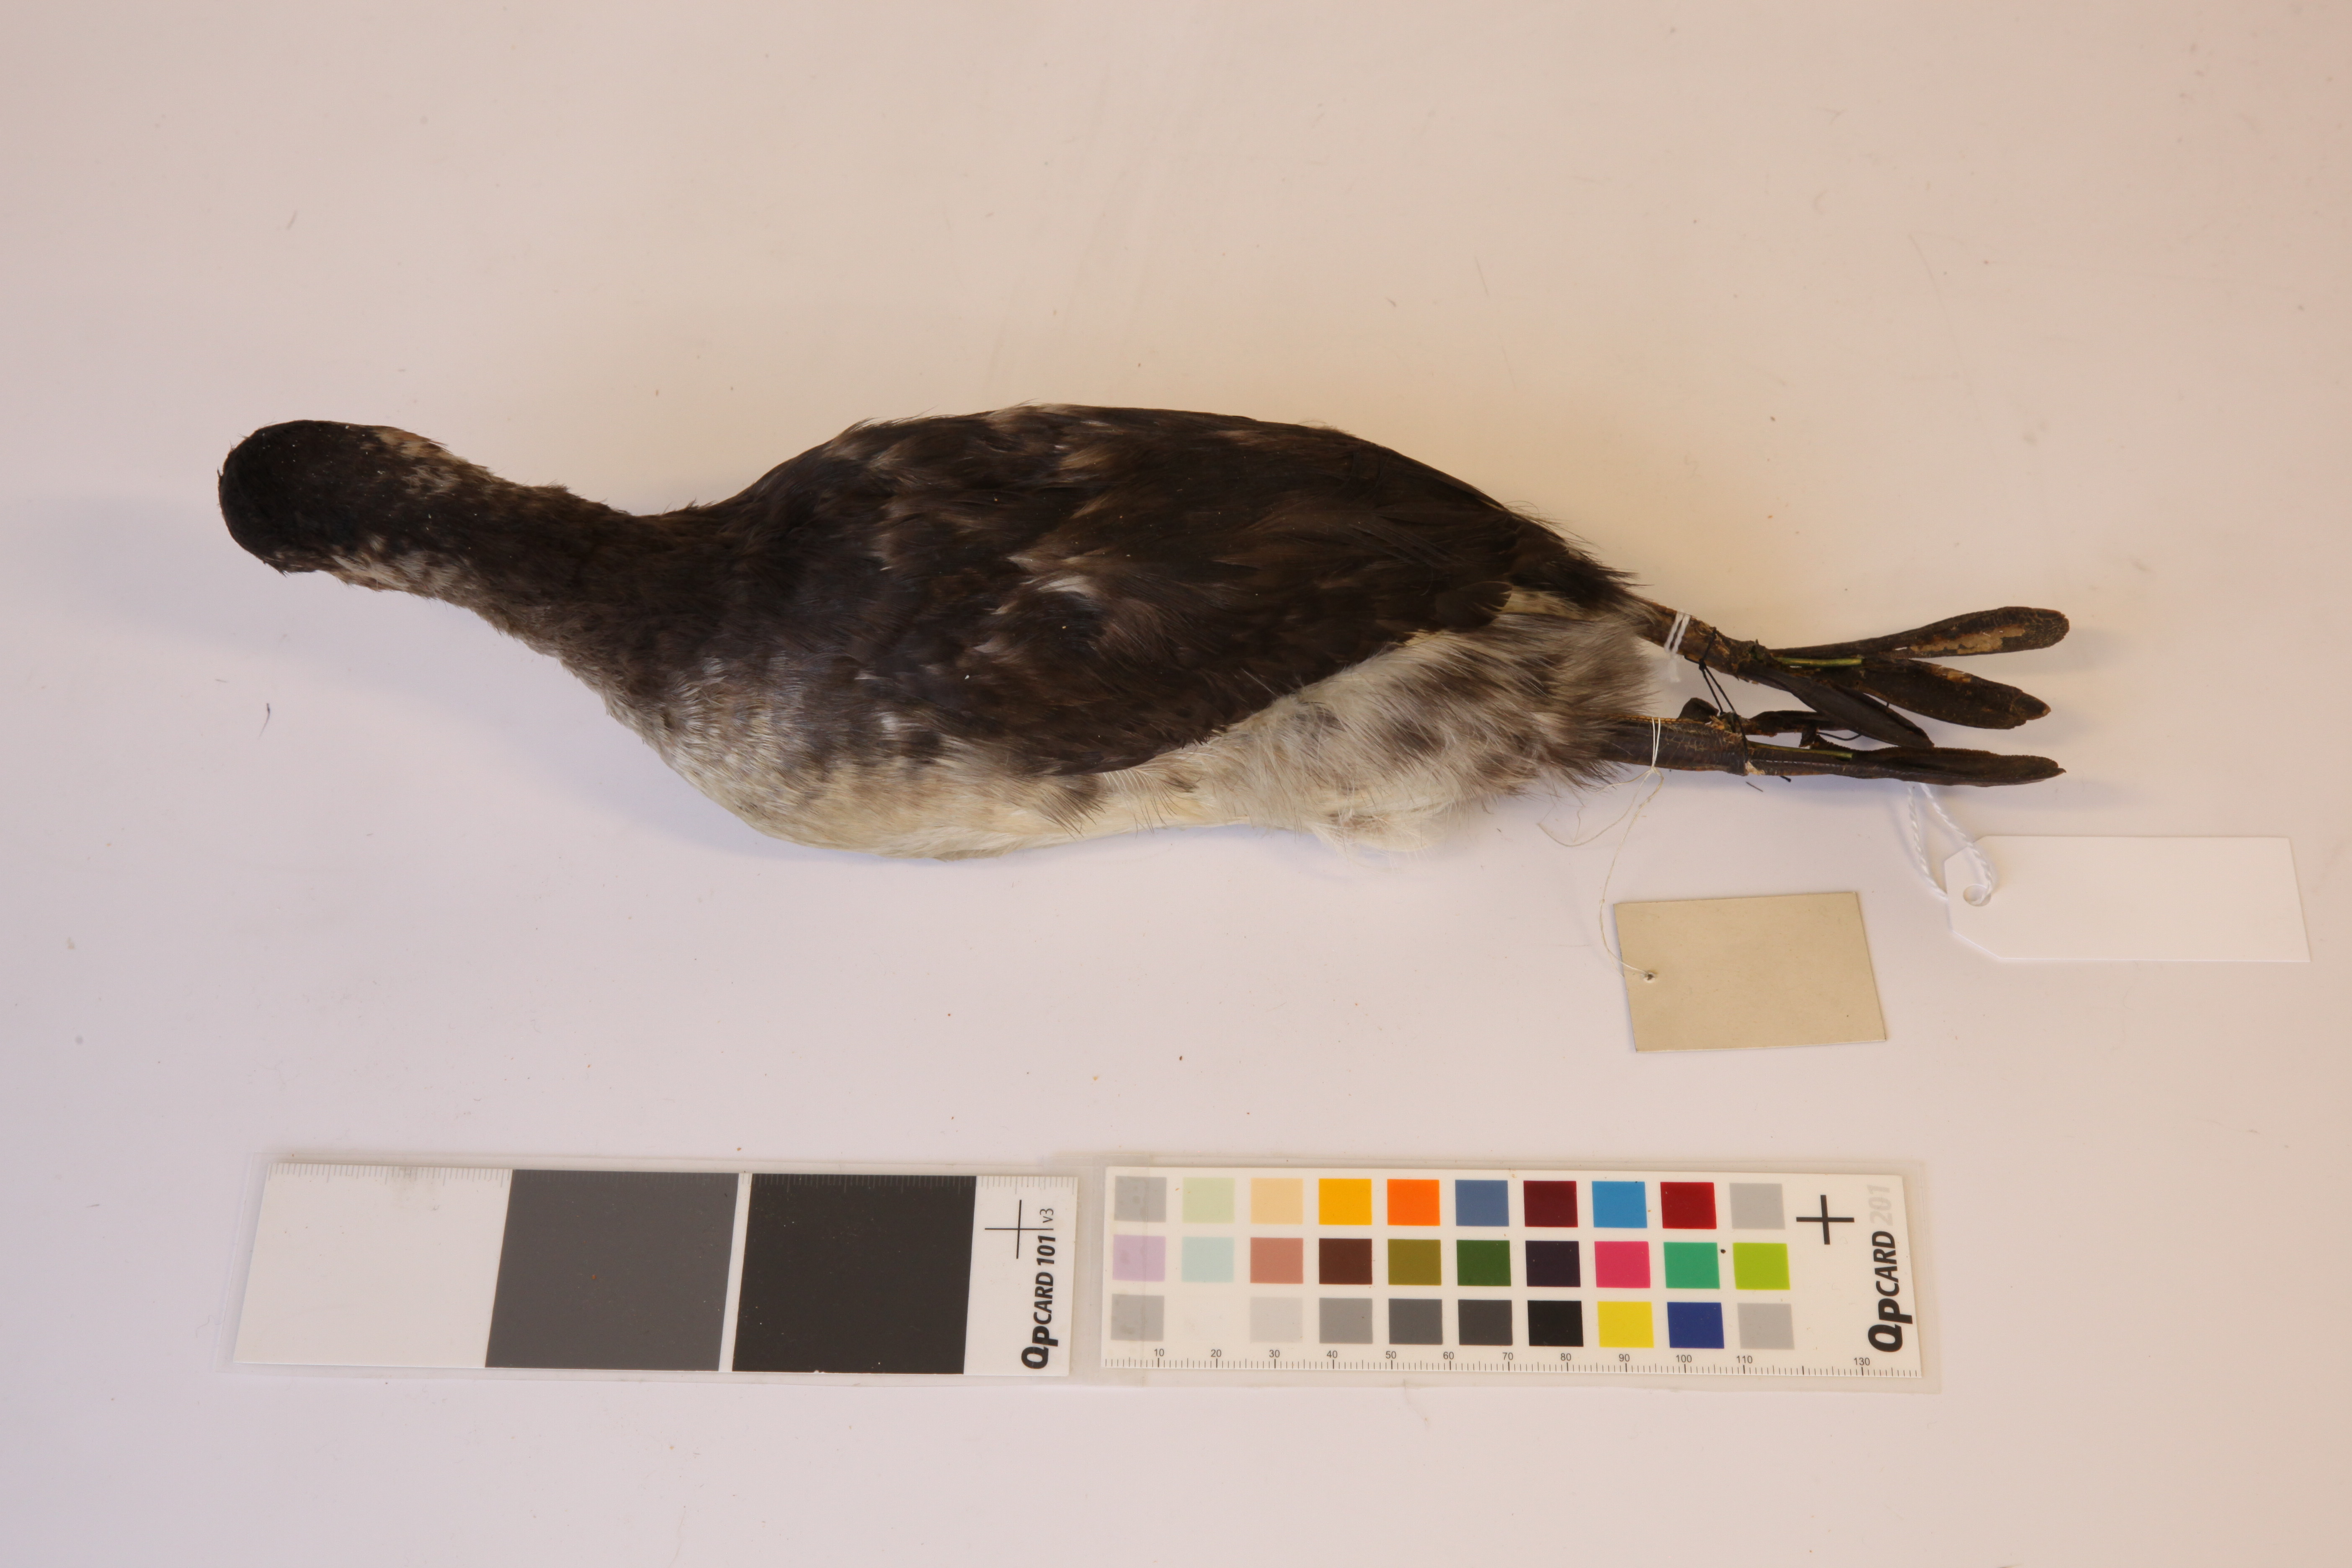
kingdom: Animalia
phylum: Chordata
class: Aves
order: Podicipediformes
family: Podicipedidae
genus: Podiceps
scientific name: Podiceps nigricollis
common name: Black-necked grebe
